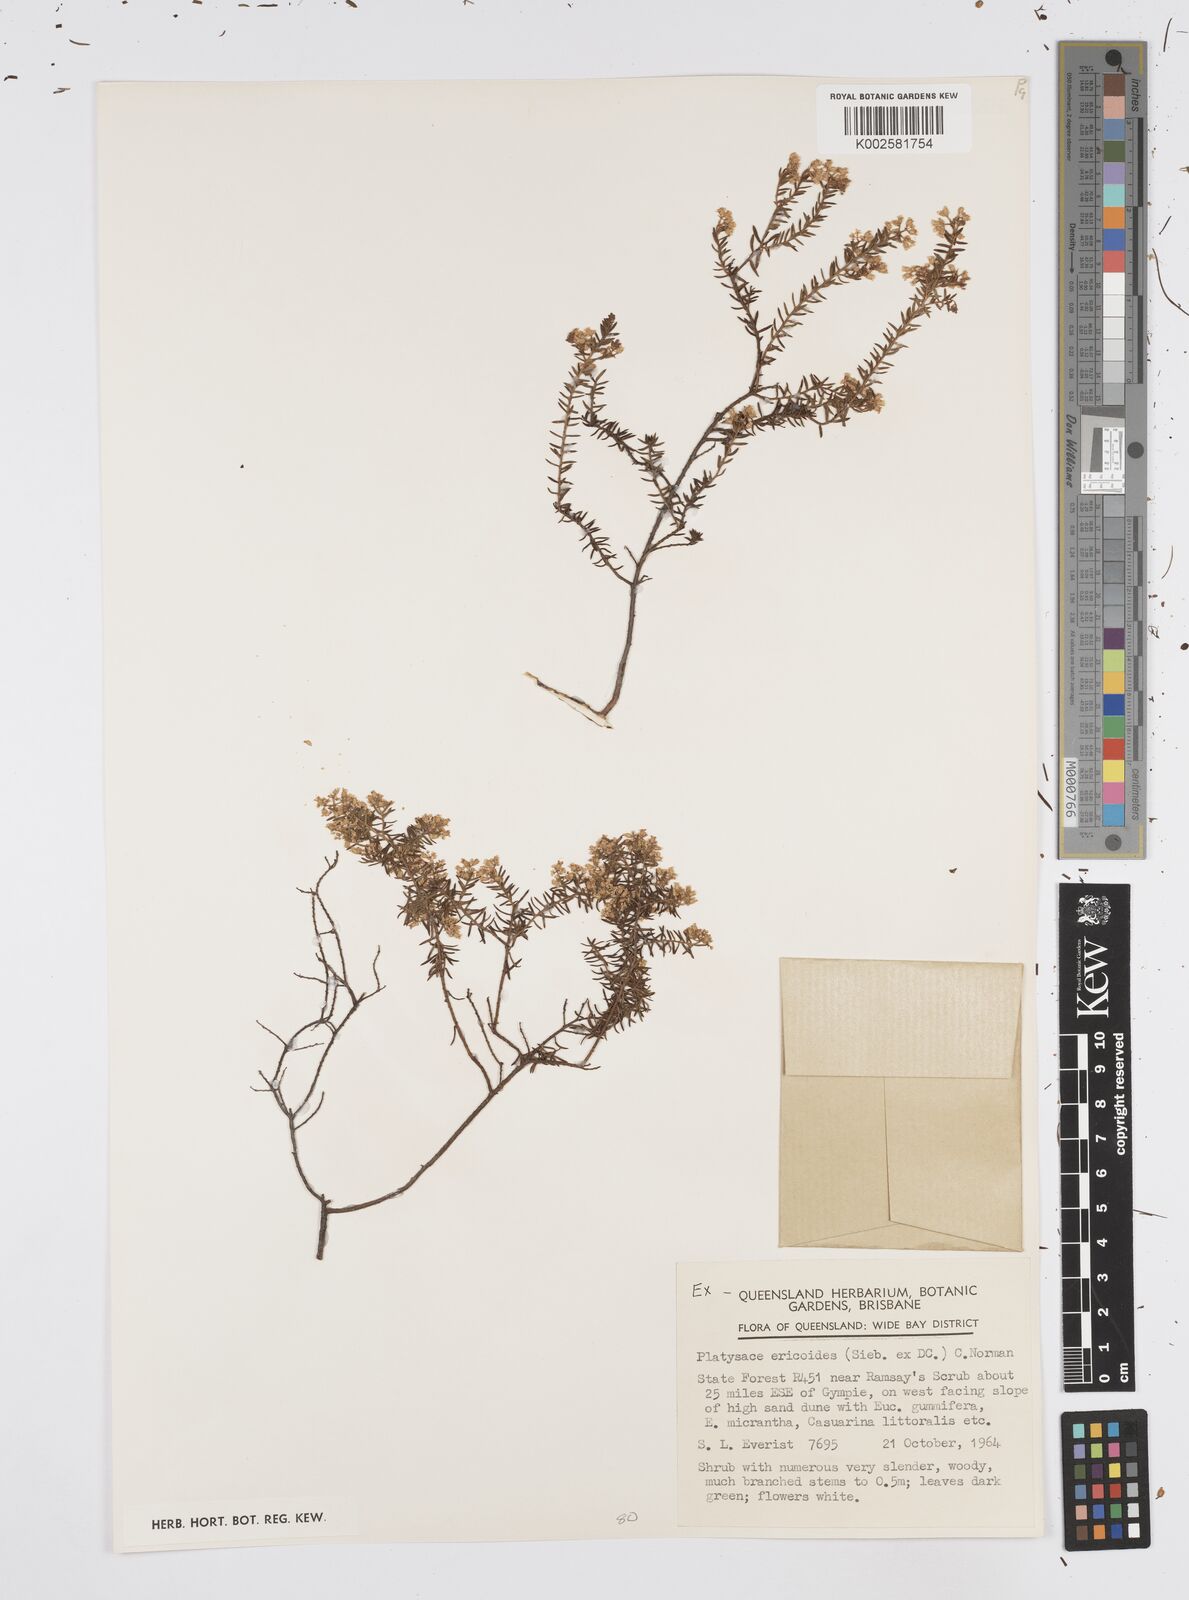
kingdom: Plantae
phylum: Tracheophyta
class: Magnoliopsida
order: Apiales
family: Apiaceae
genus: Platysace
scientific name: Platysace ericoides
